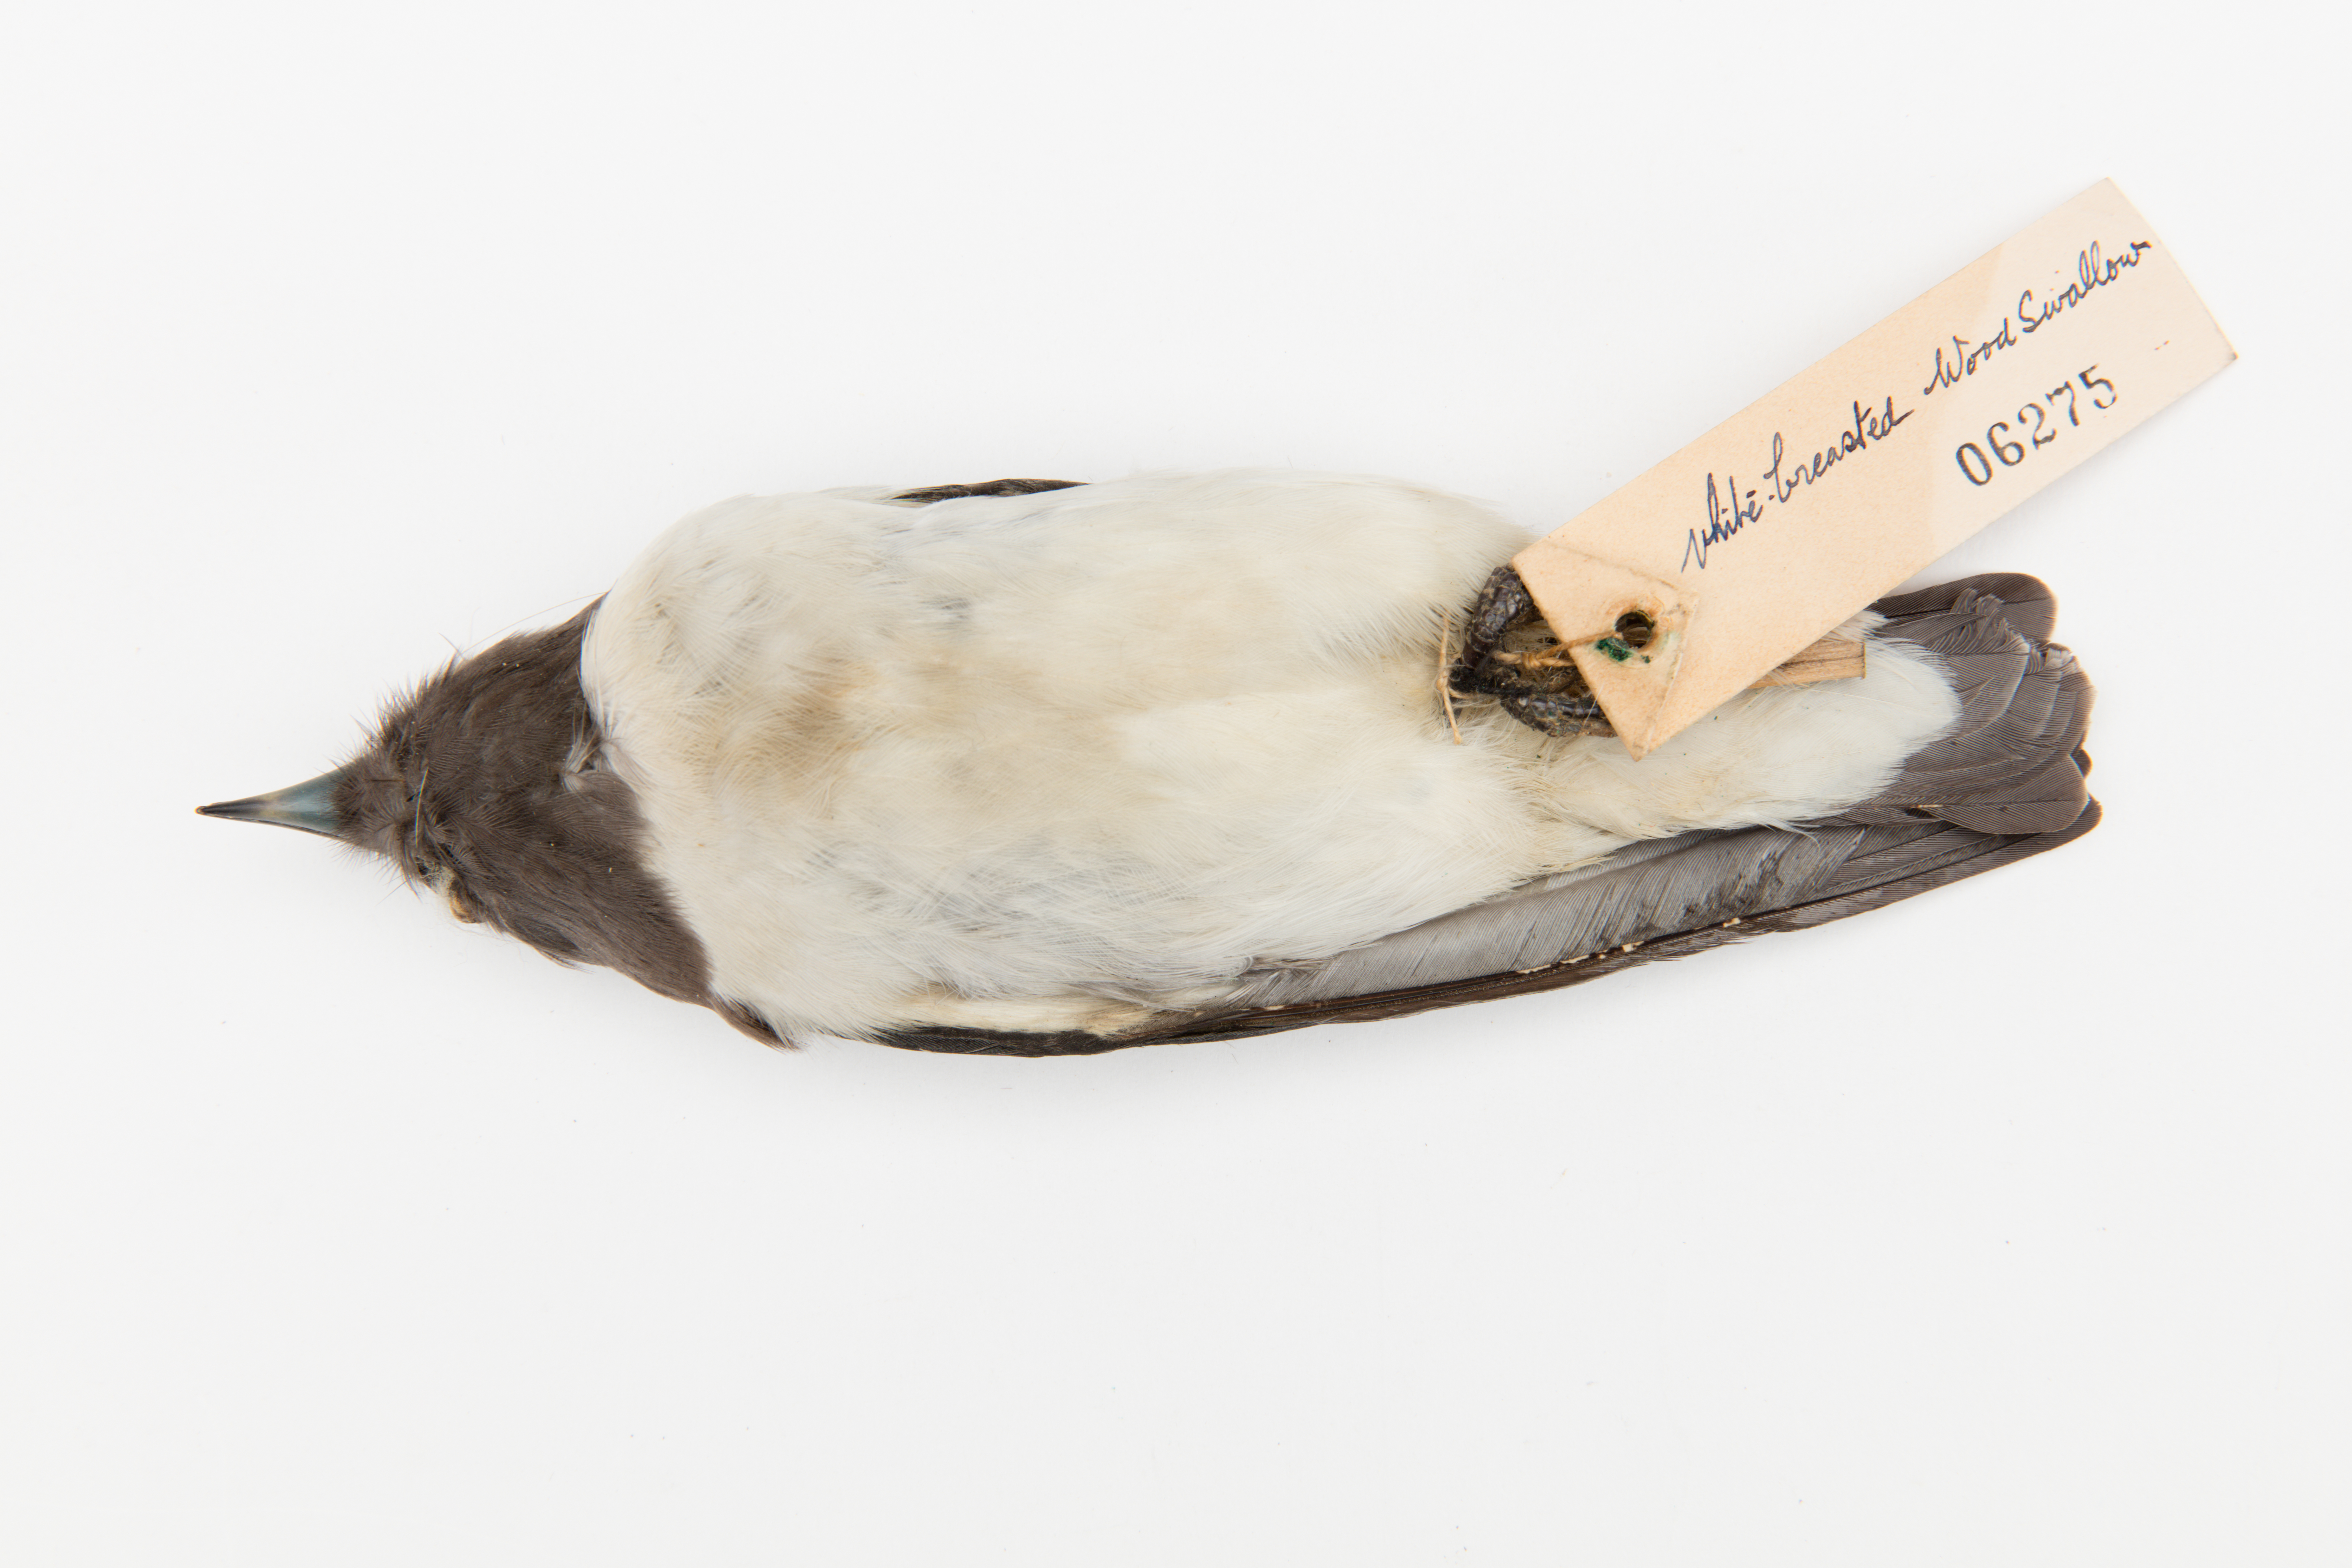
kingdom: Animalia
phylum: Chordata
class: Aves
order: Passeriformes
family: Artamidae
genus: Artamus
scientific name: Artamus leucoryn
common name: White-breasted woodswallow
